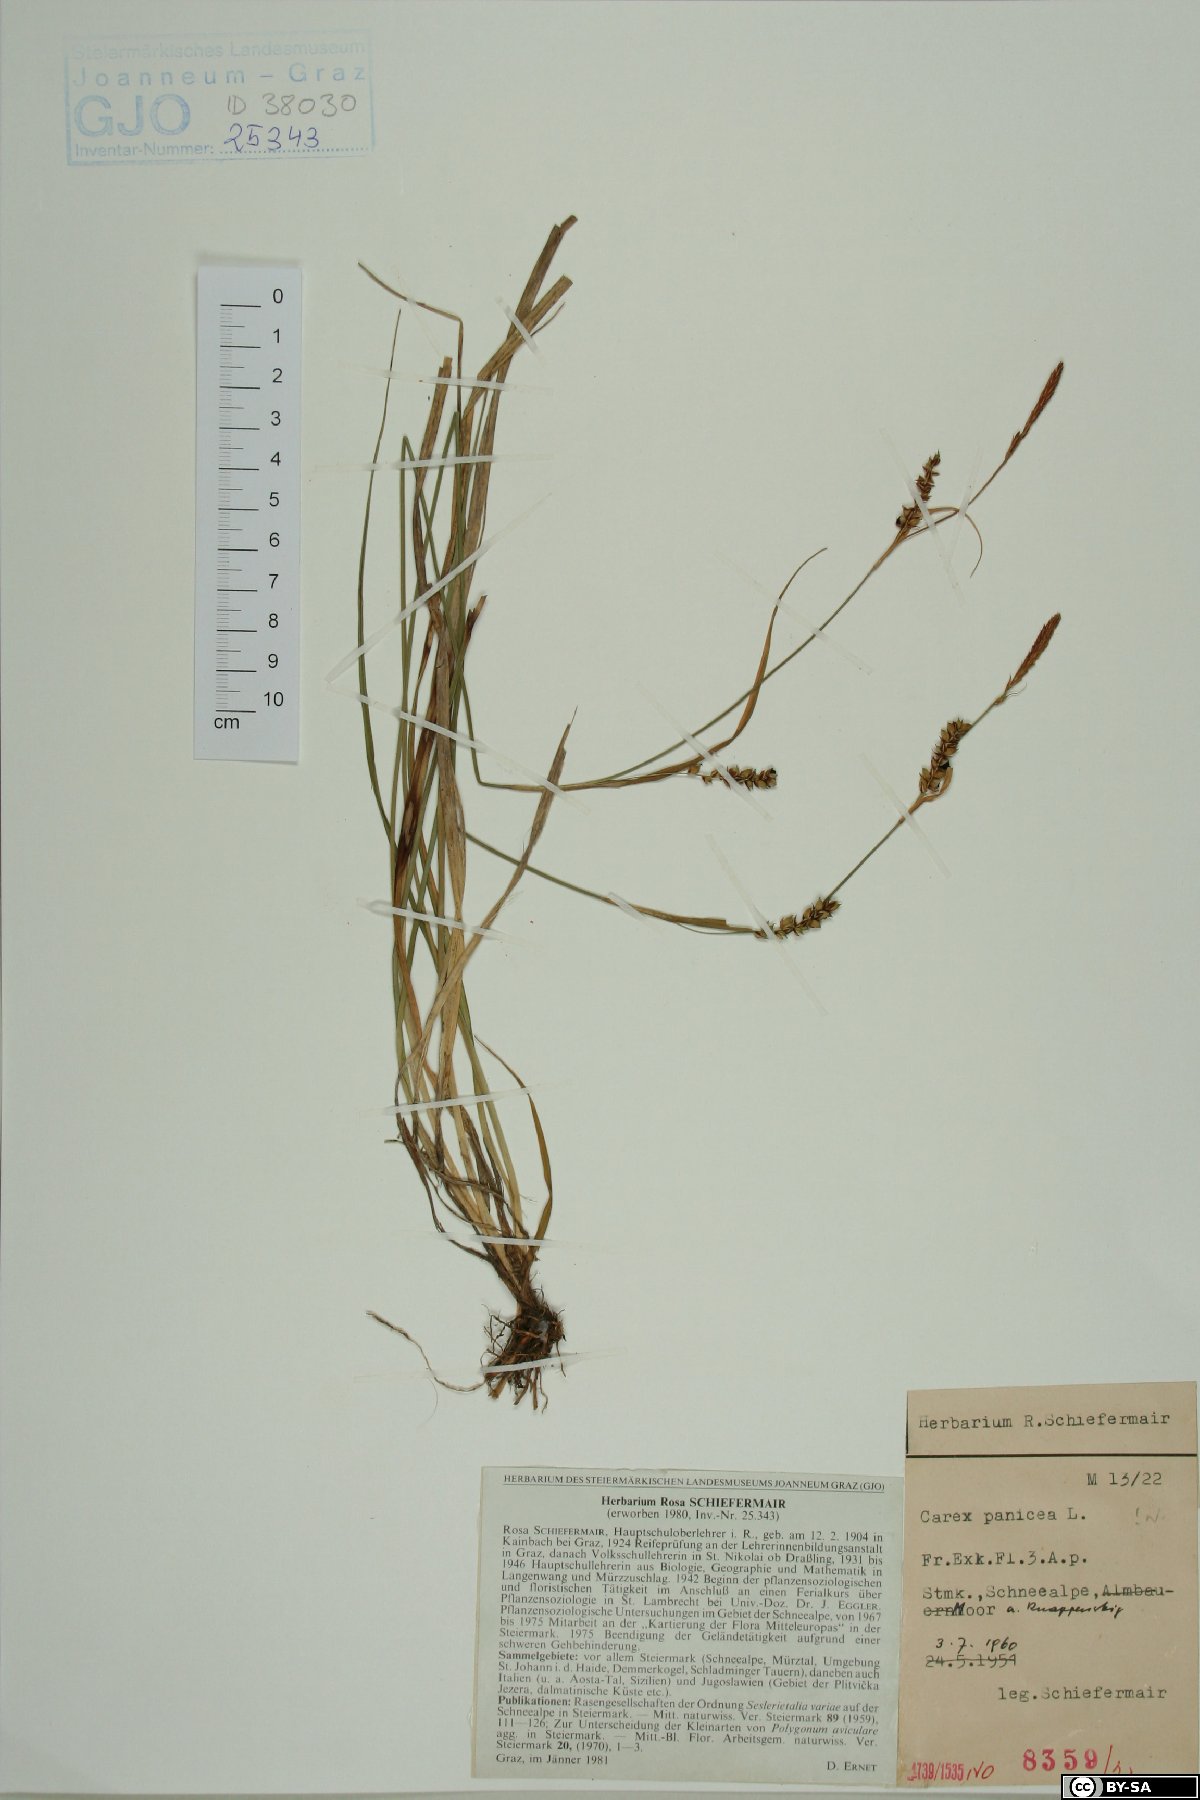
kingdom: Plantae
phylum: Tracheophyta
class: Liliopsida
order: Poales
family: Cyperaceae
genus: Carex
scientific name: Carex panicea
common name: Carnation sedge
